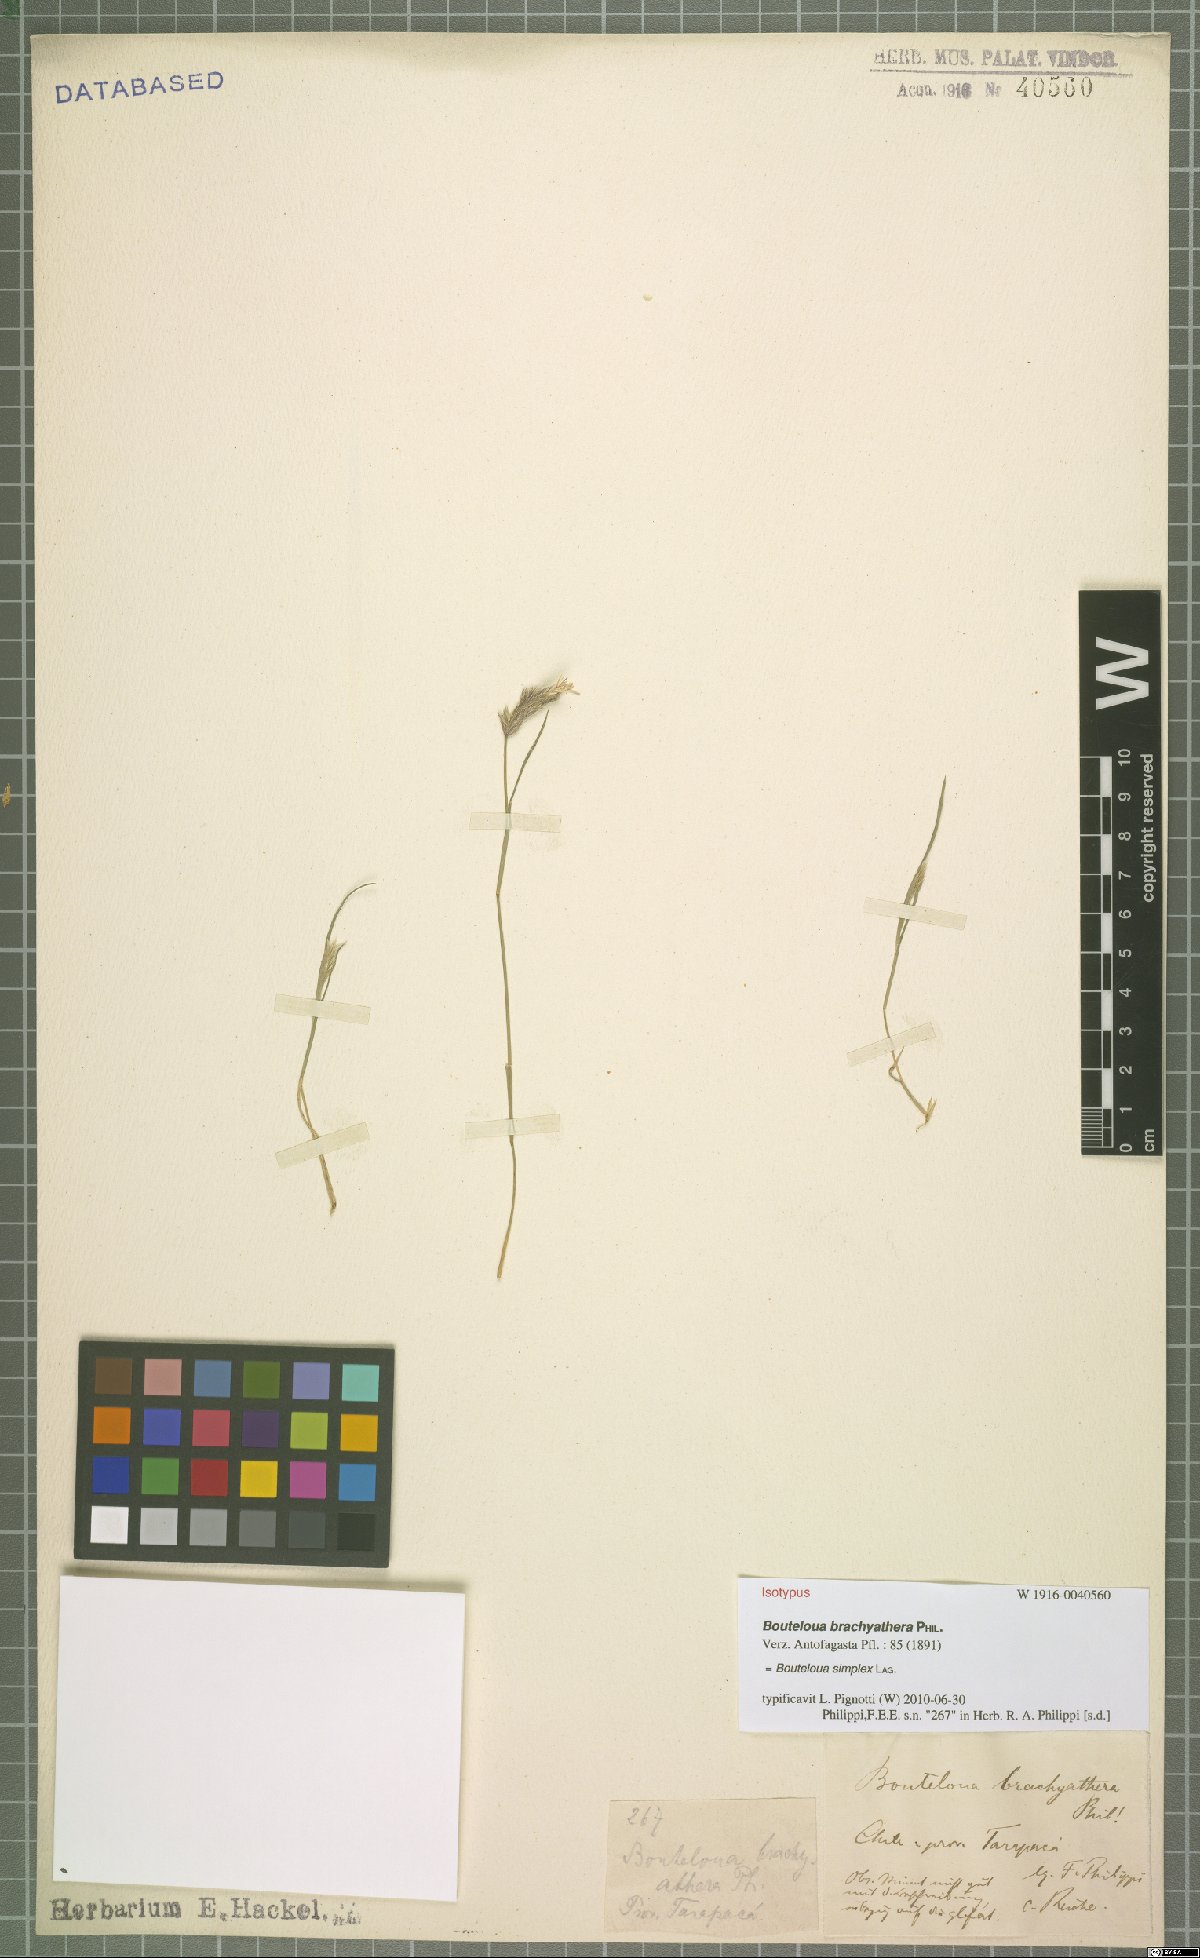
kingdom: Plantae
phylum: Tracheophyta
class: Liliopsida
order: Poales
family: Poaceae
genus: Bouteloua
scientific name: Bouteloua simplex
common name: Mat grama
